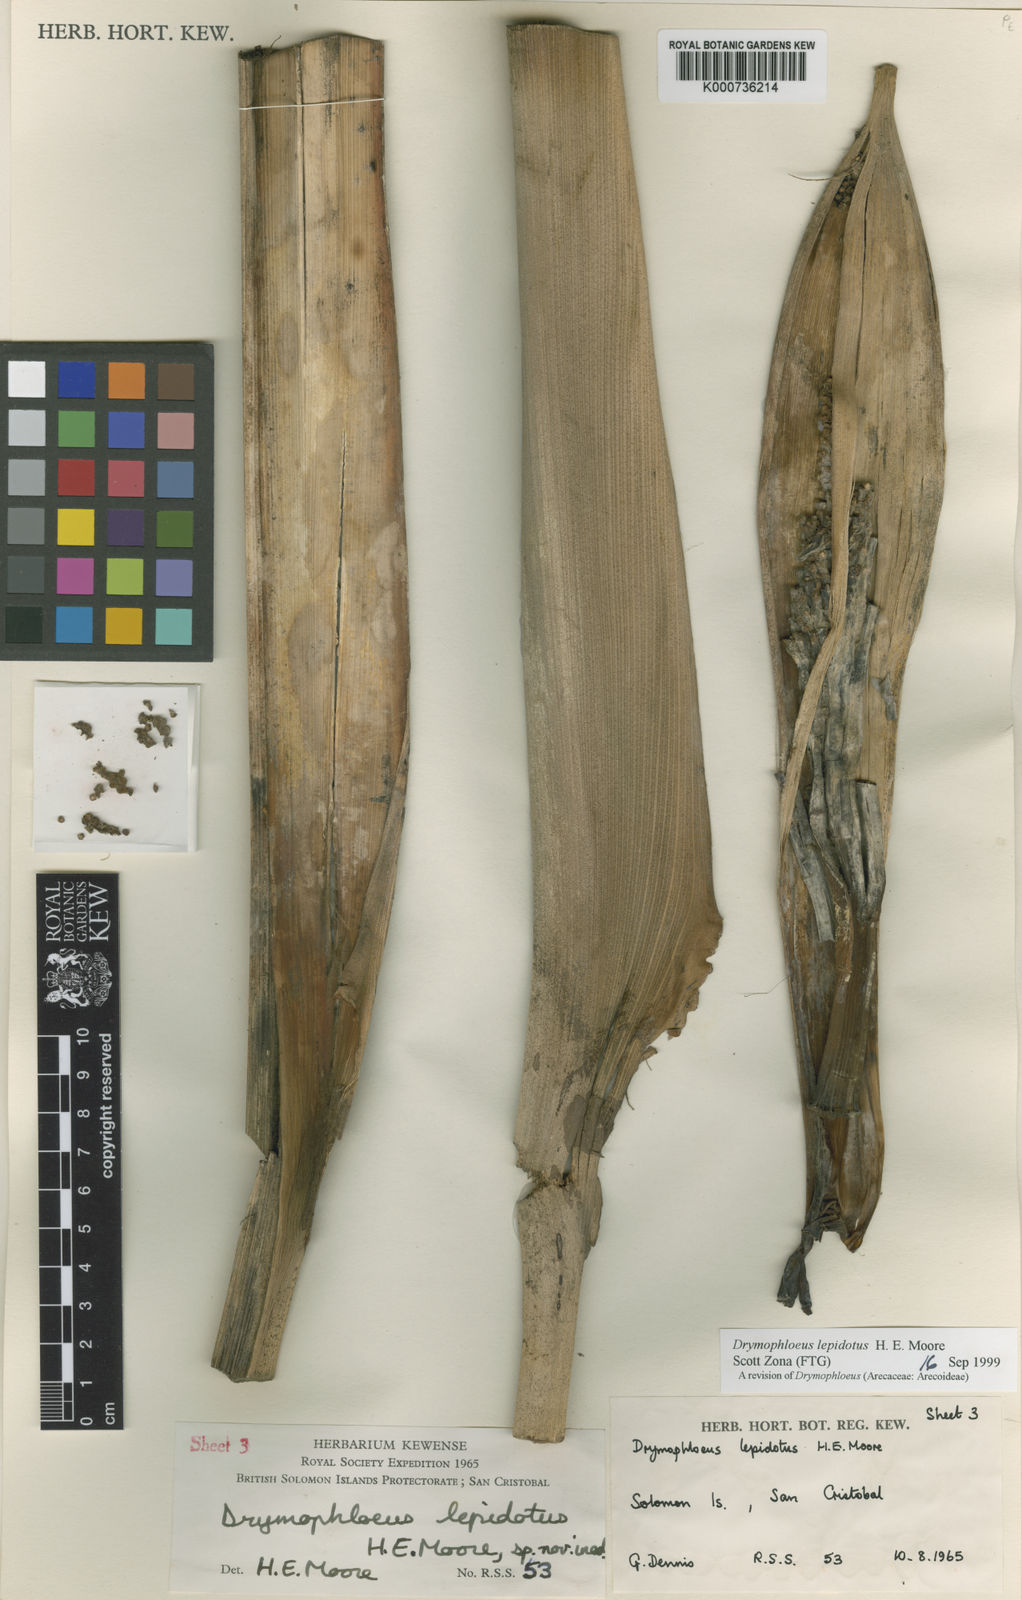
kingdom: Plantae
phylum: Tracheophyta
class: Liliopsida
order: Arecales
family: Arecaceae
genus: Veitchia
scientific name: Veitchia lepidota
